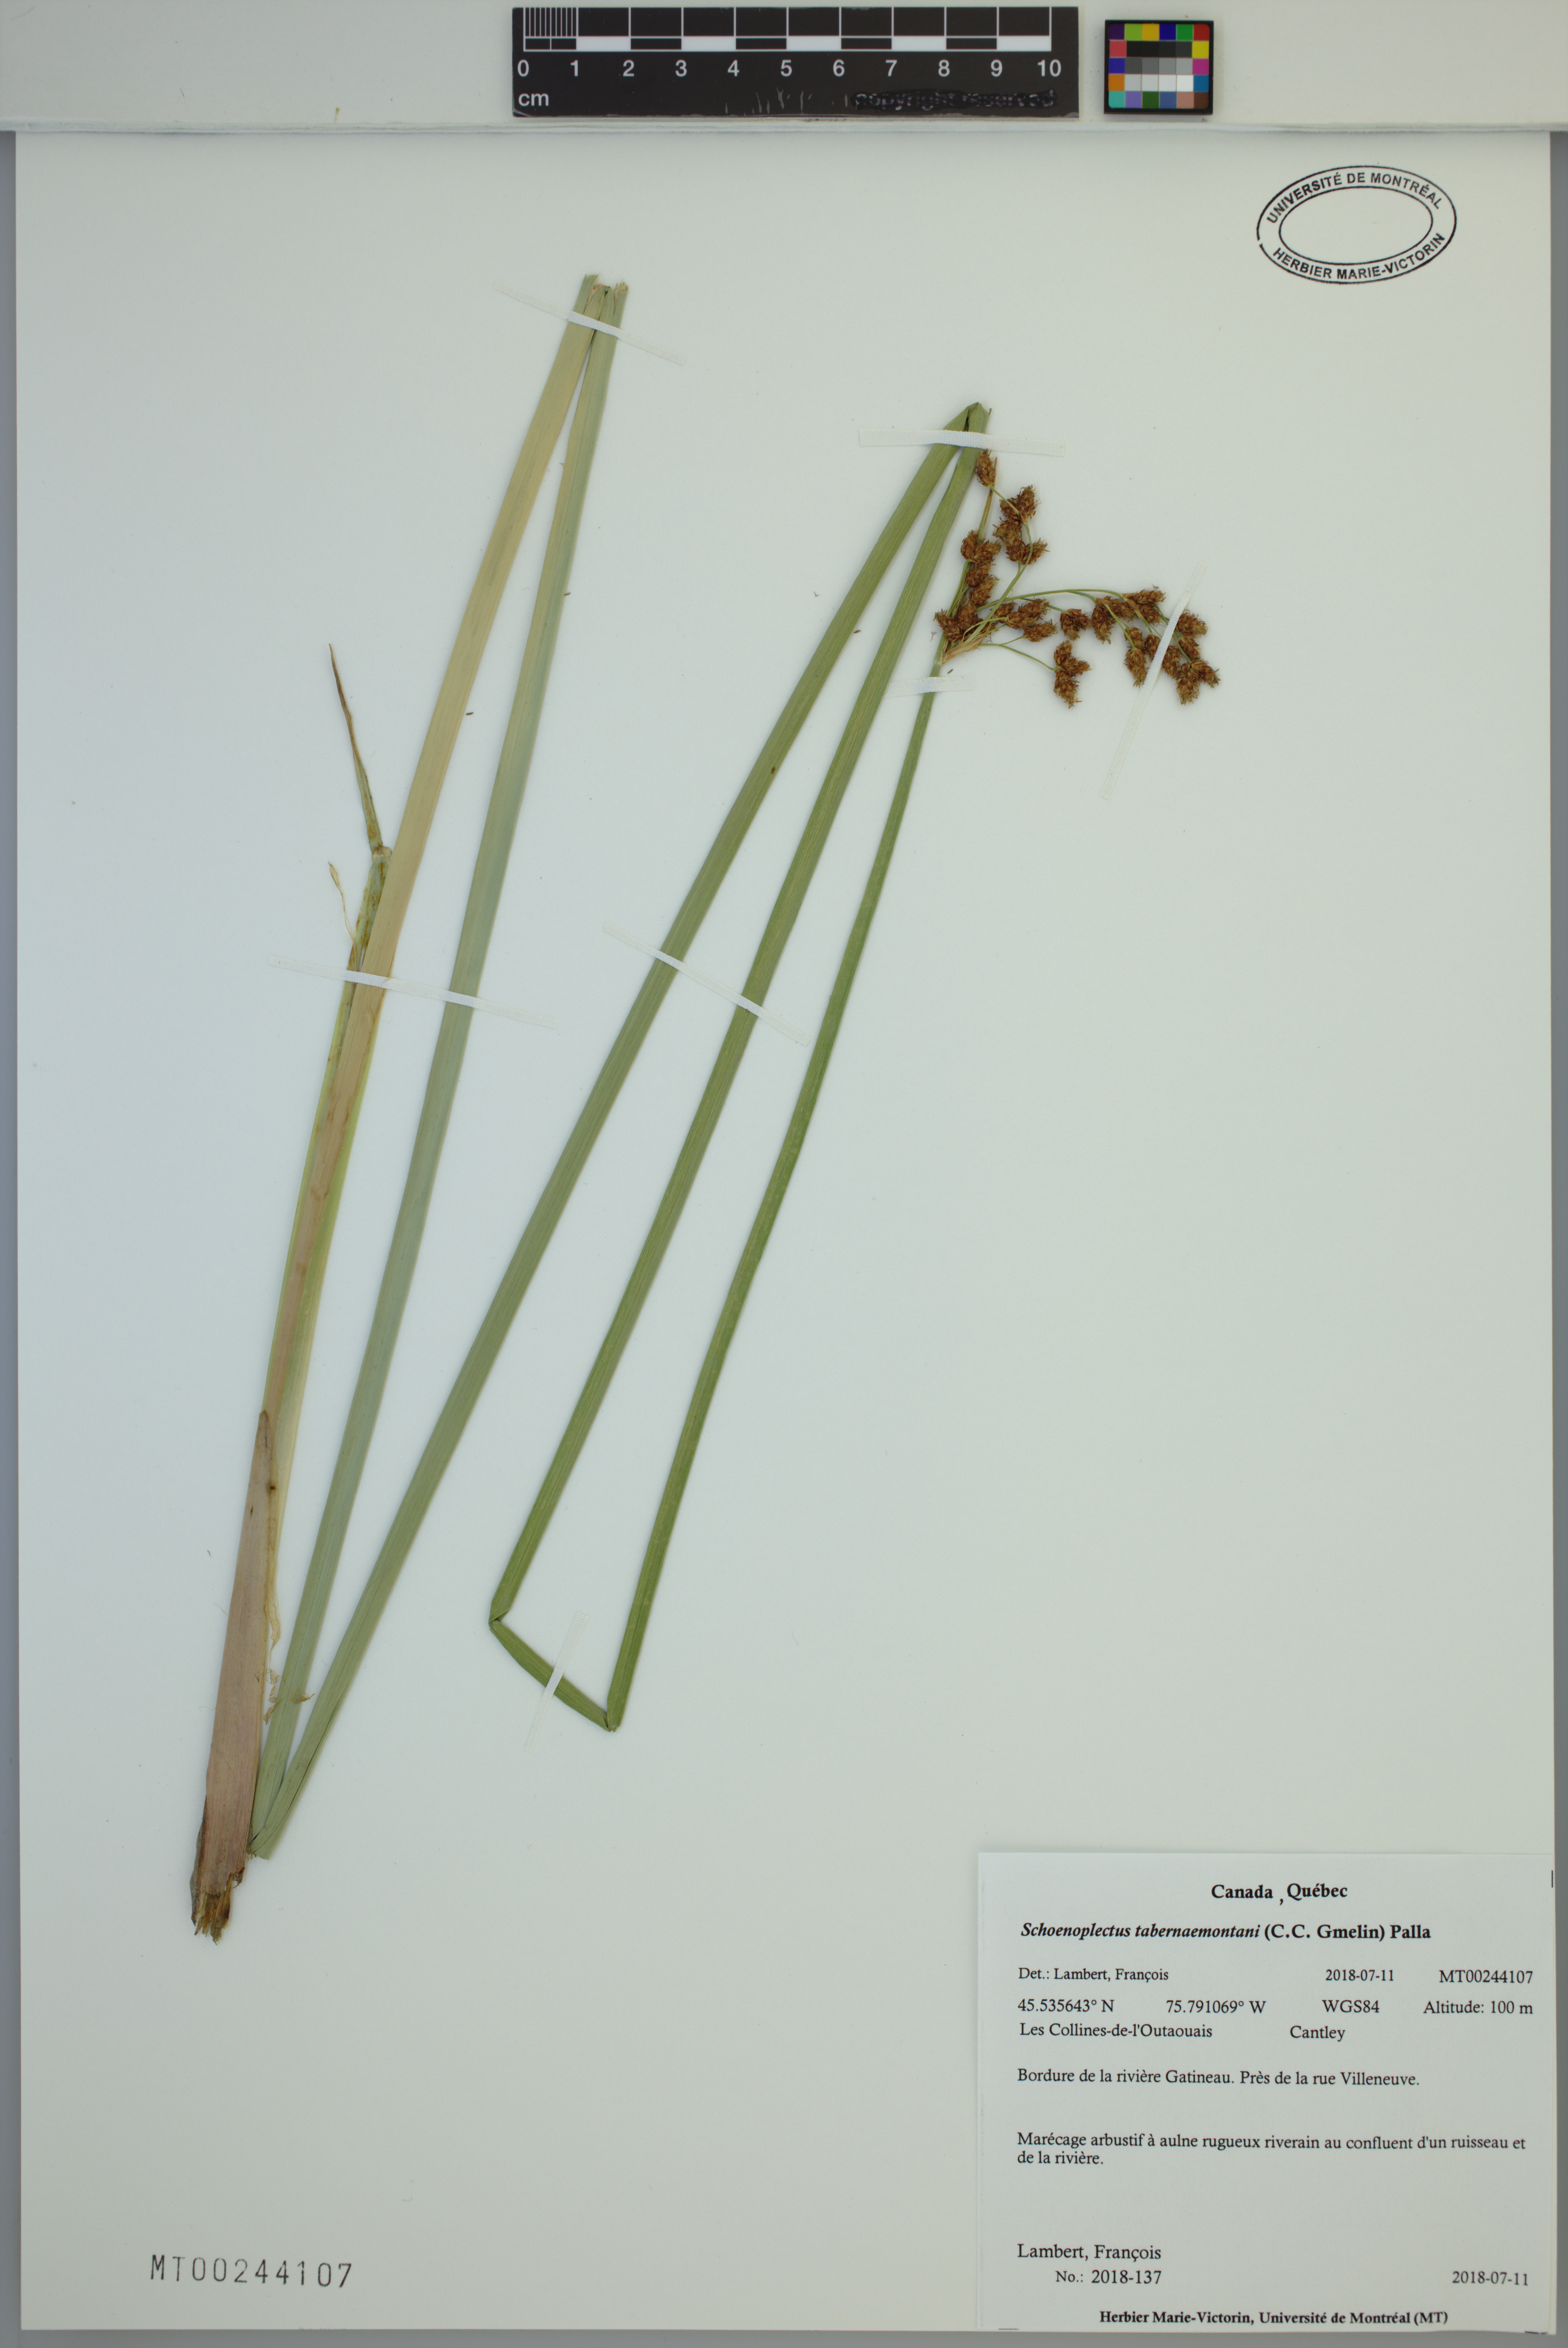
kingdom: Plantae
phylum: Tracheophyta
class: Liliopsida
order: Poales
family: Cyperaceae
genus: Schoenoplectus
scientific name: Schoenoplectus tabernaemontani
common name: Grey club-rush
